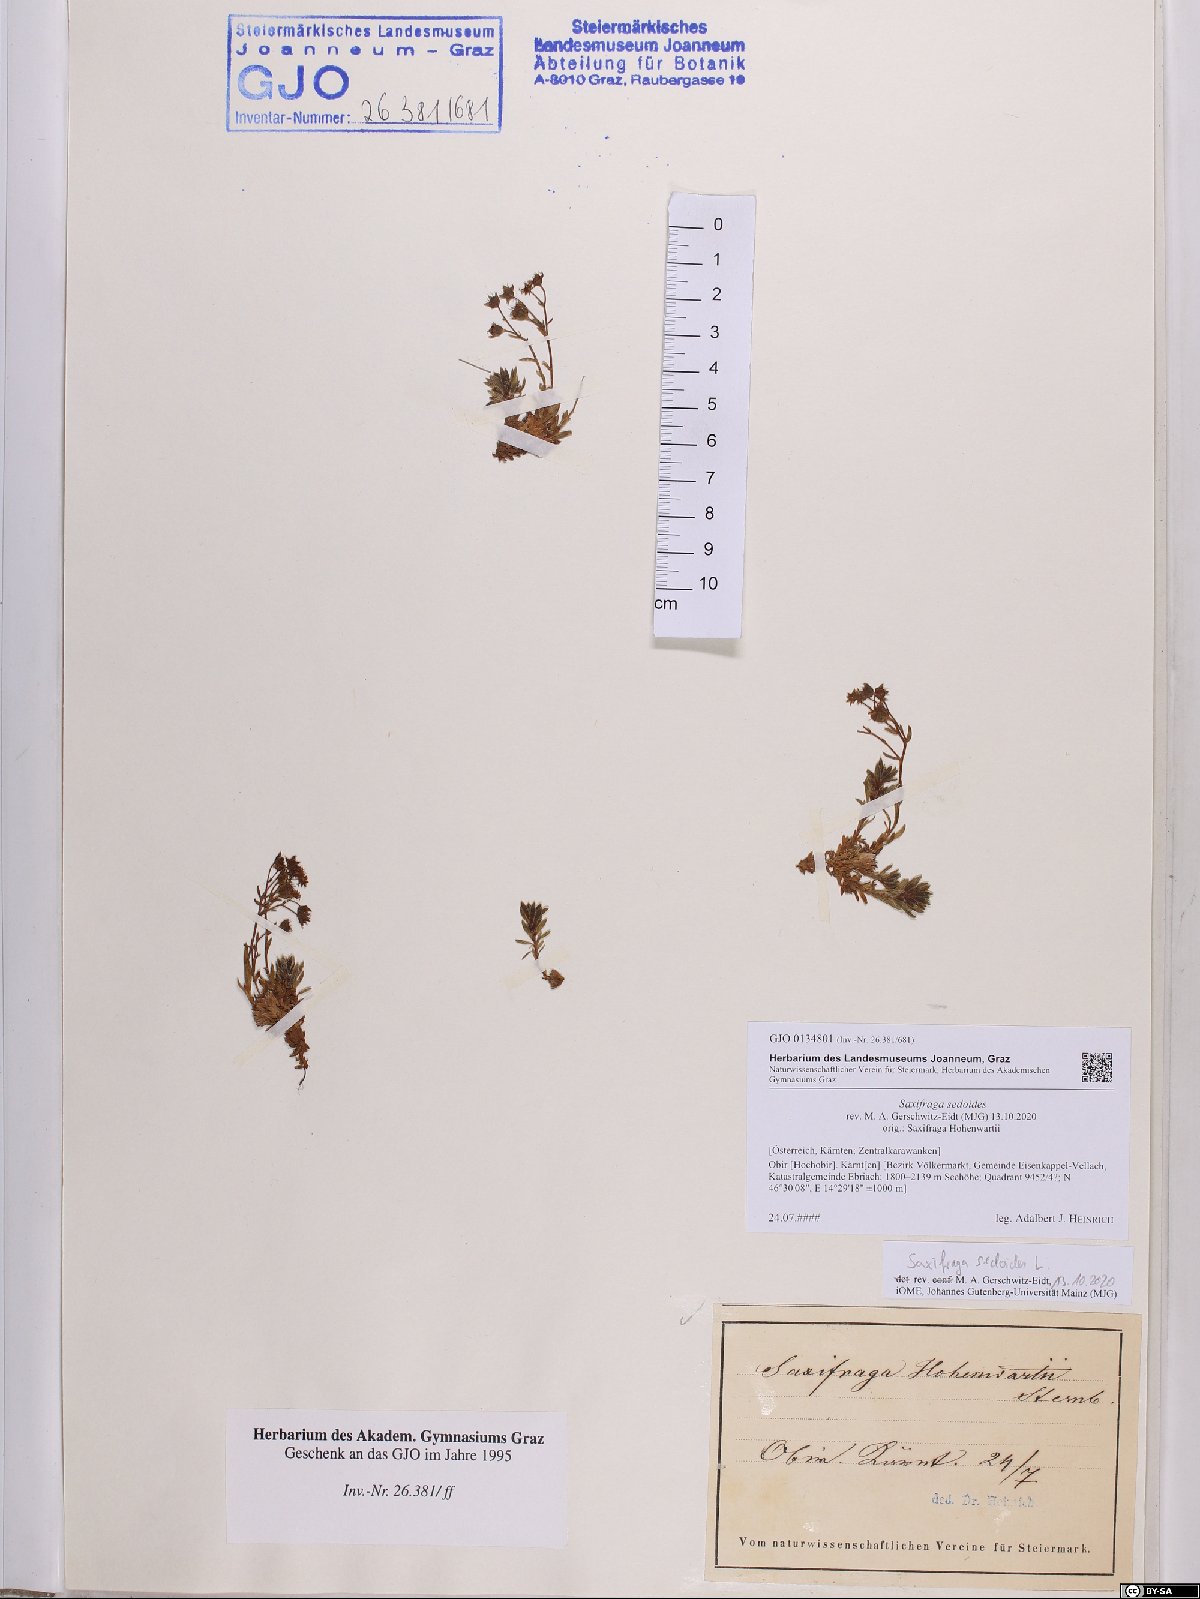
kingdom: Plantae
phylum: Tracheophyta
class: Magnoliopsida
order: Saxifragales
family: Saxifragaceae
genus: Saxifraga
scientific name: Saxifraga sedoides
